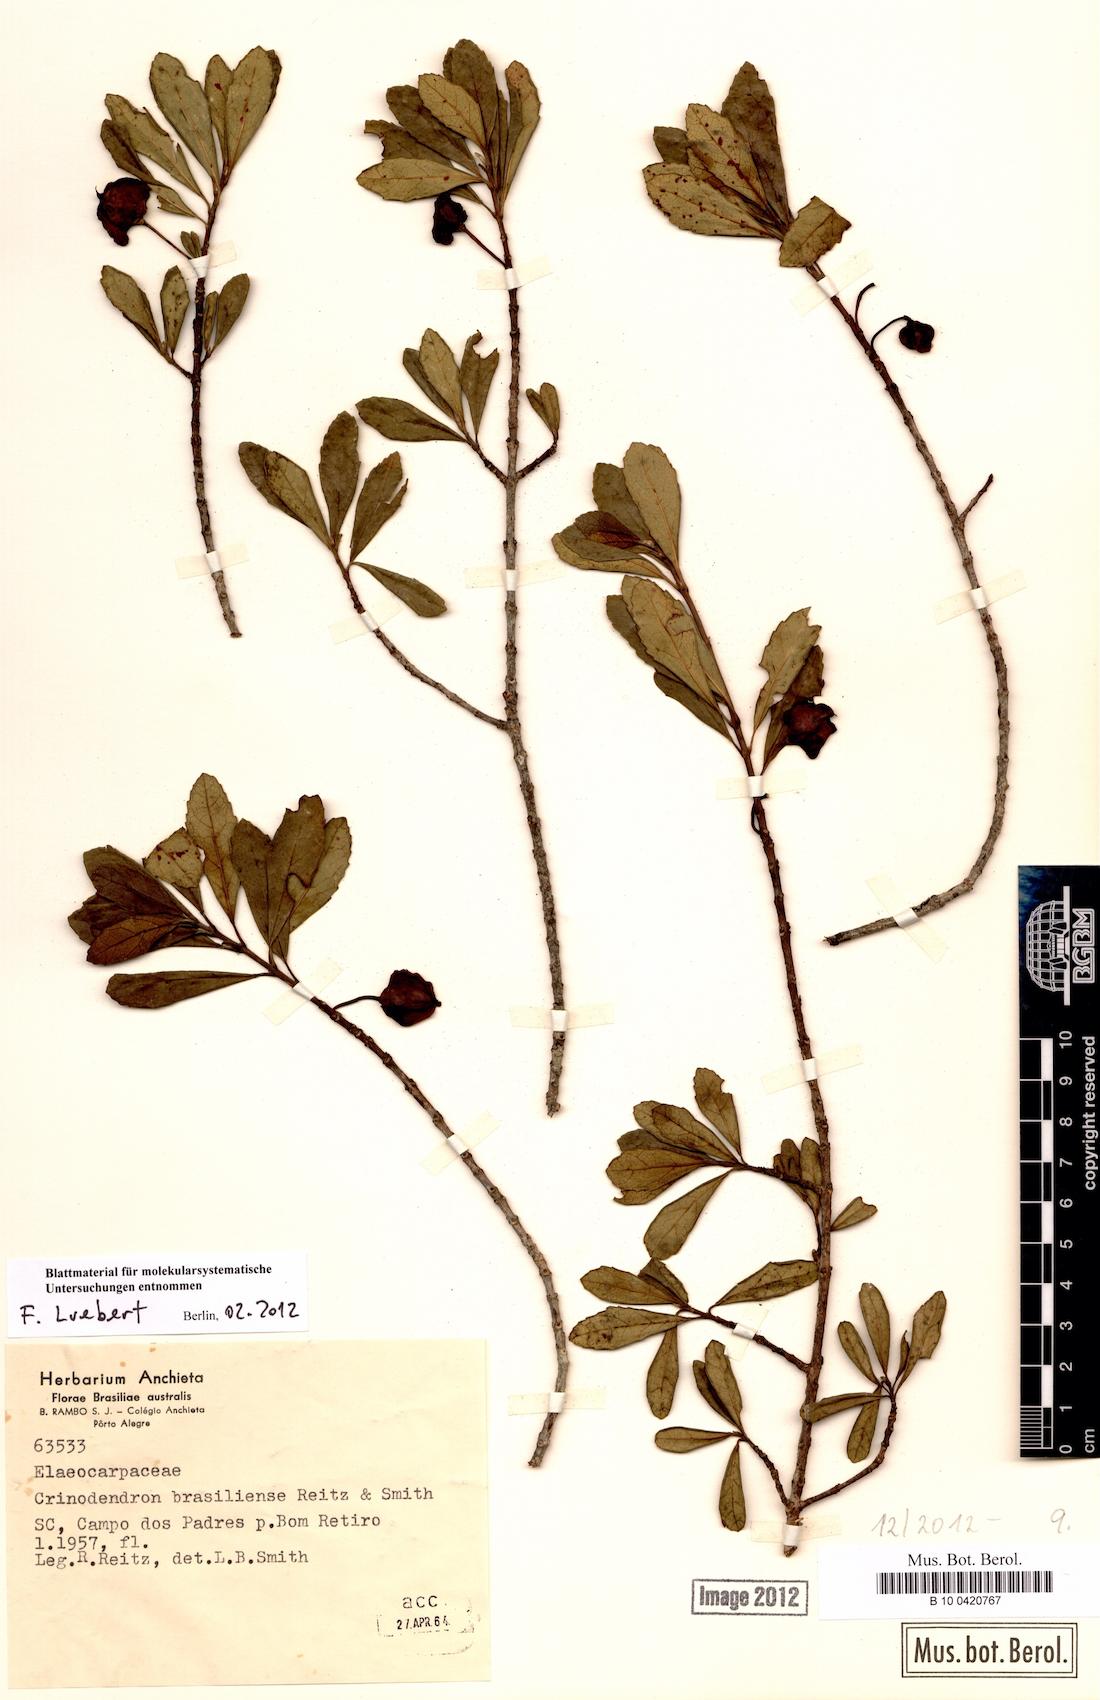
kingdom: Plantae
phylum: Tracheophyta
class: Magnoliopsida
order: Oxalidales
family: Elaeocarpaceae
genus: Crinodendron
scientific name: Crinodendron brasiliense
